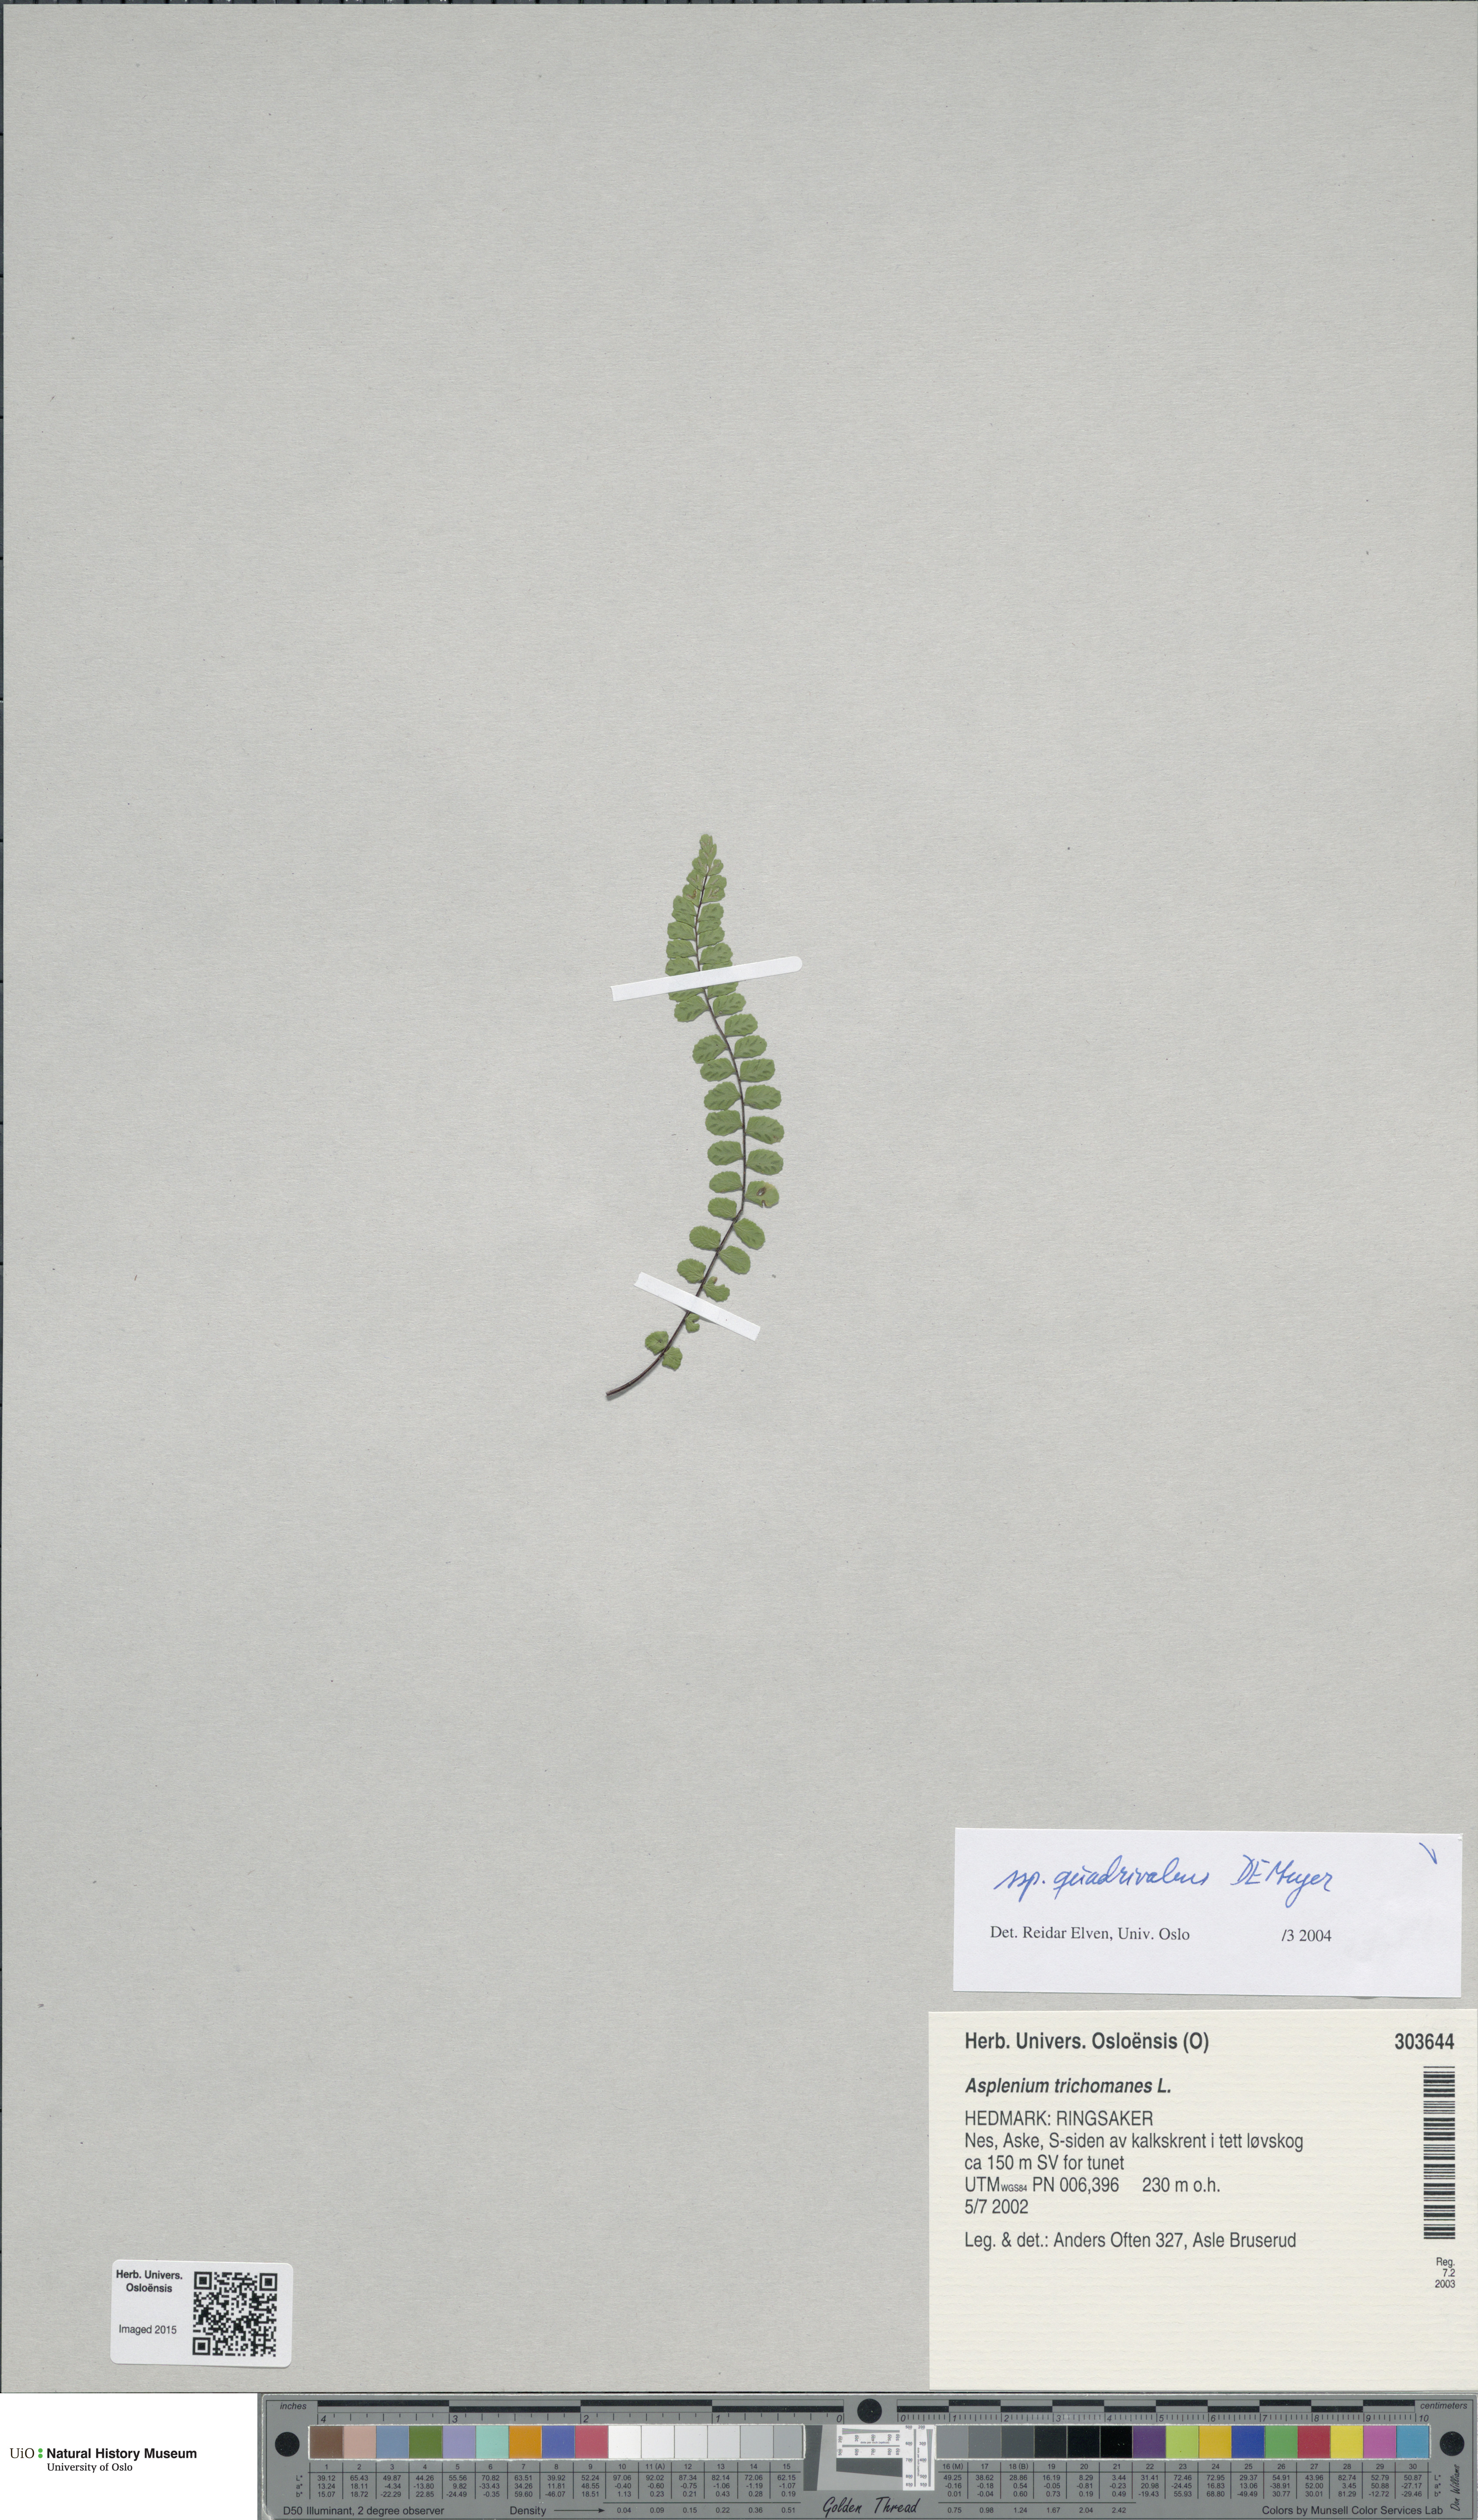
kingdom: Plantae
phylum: Tracheophyta
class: Polypodiopsida
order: Polypodiales
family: Aspleniaceae
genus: Asplenium
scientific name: Asplenium quadrivalens
